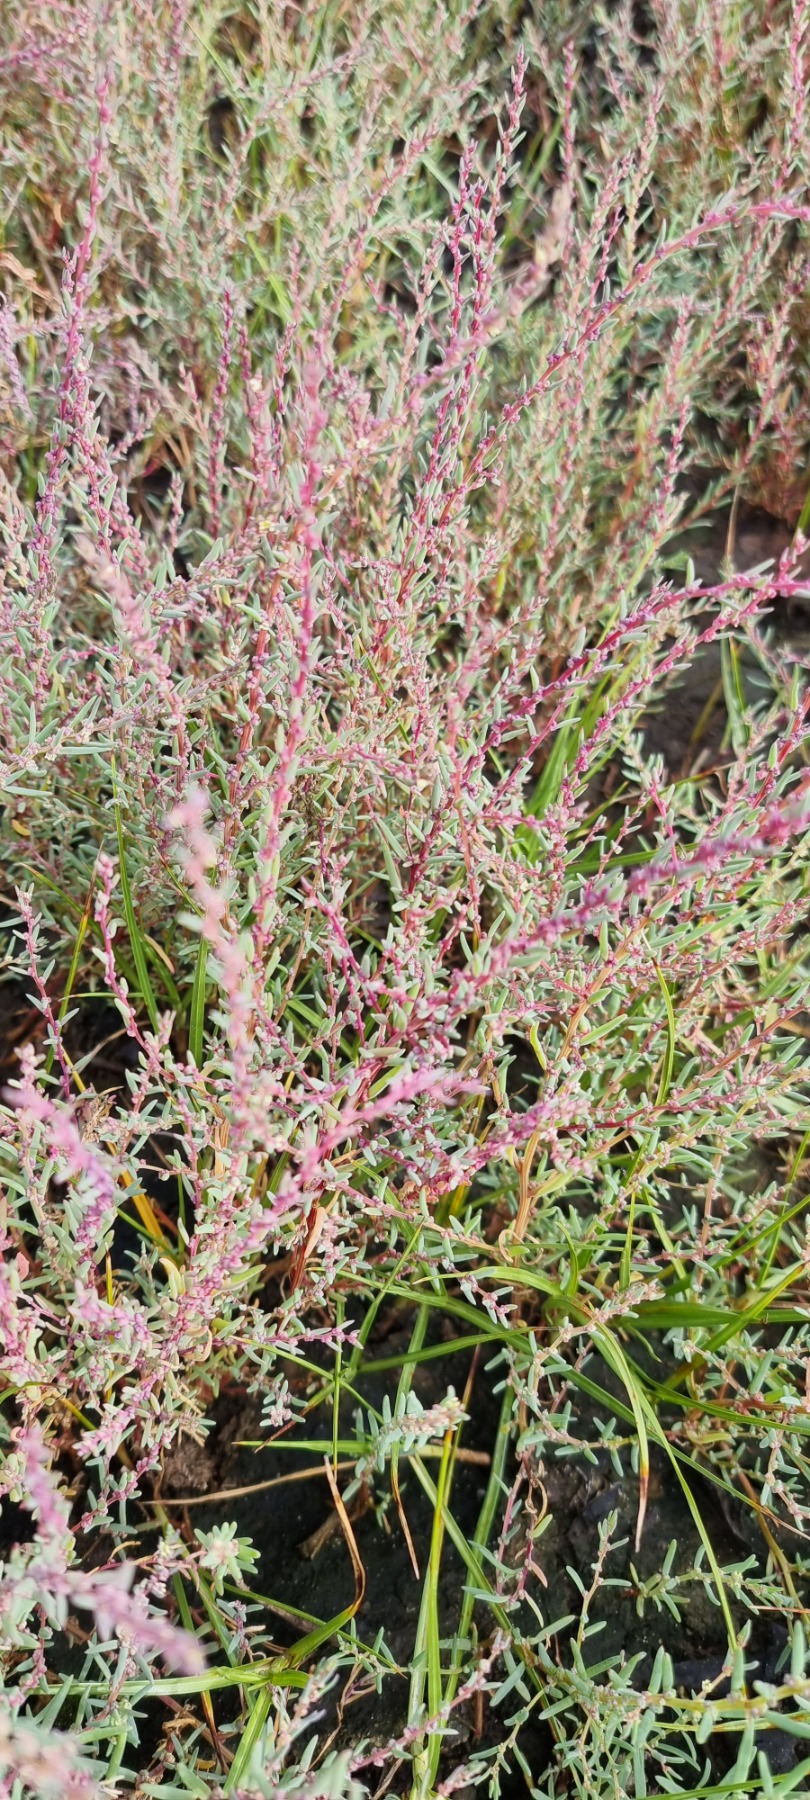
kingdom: Plantae
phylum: Tracheophyta
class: Magnoliopsida
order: Caryophyllales
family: Amaranthaceae
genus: Suaeda
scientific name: Suaeda maritima
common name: Strandgåsefod
